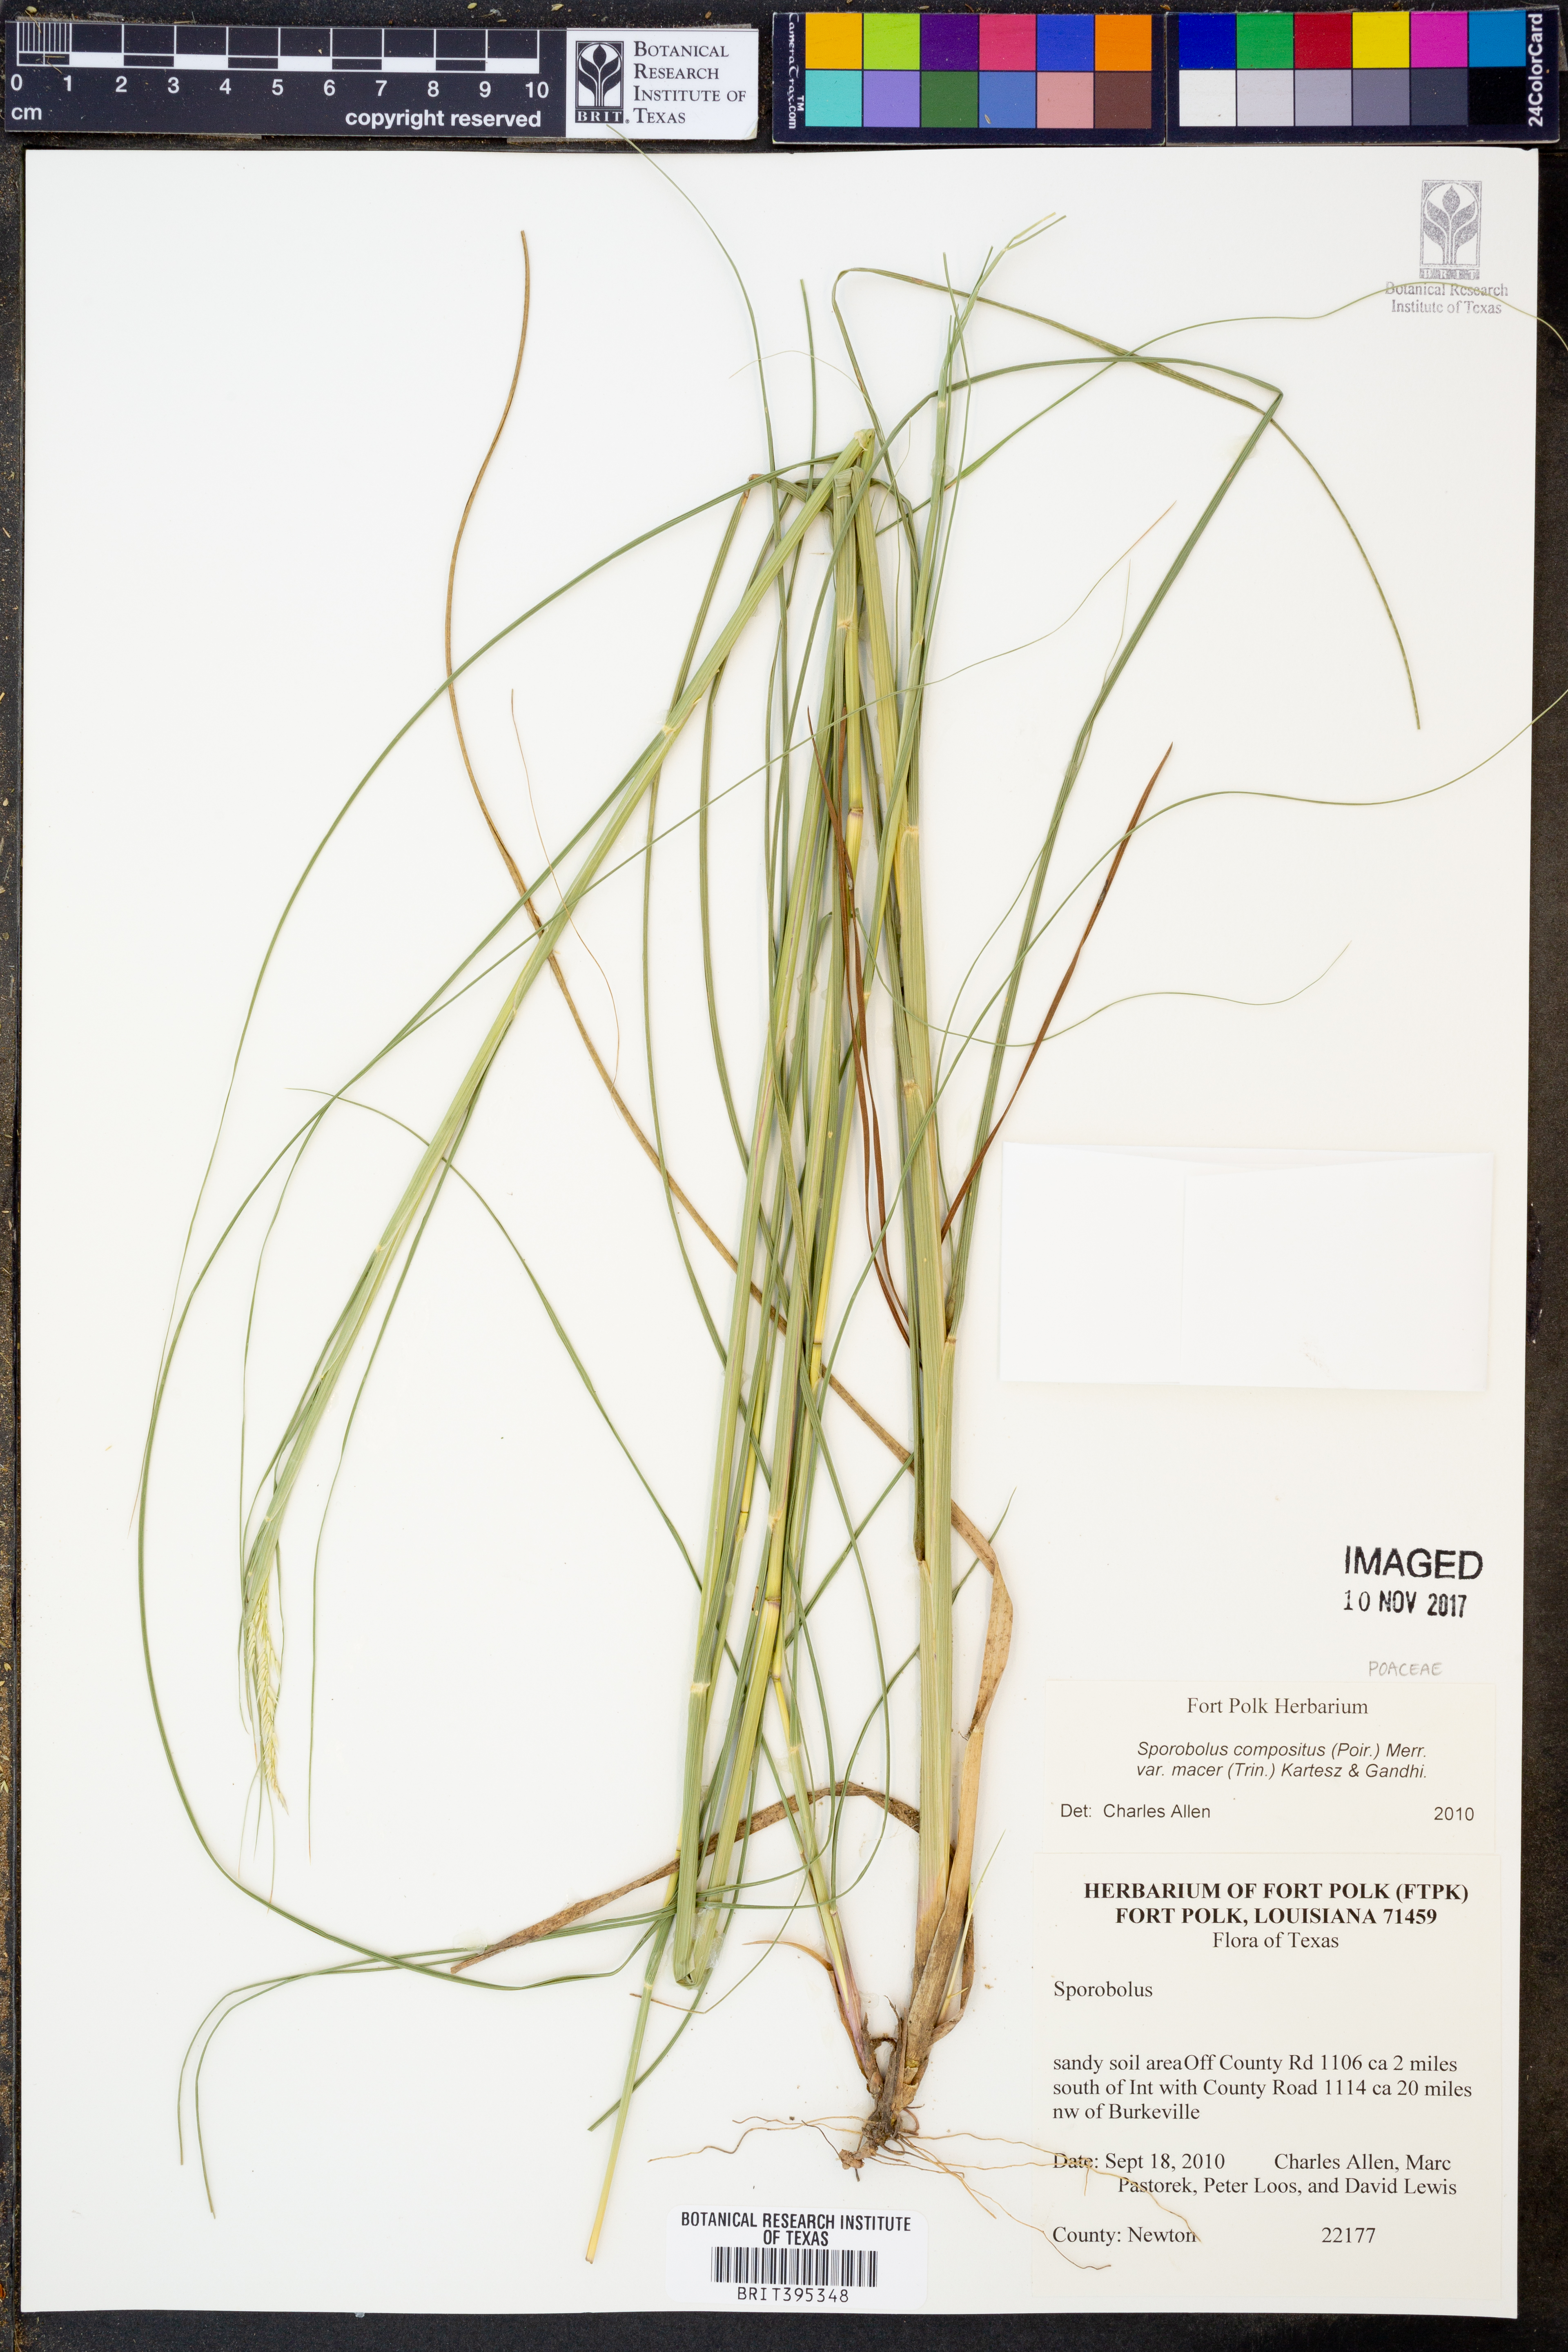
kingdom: Plantae
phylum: Tracheophyta
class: Liliopsida
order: Poales
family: Poaceae
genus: Sporobolus
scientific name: Sporobolus compositus
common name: Rough dropseed
